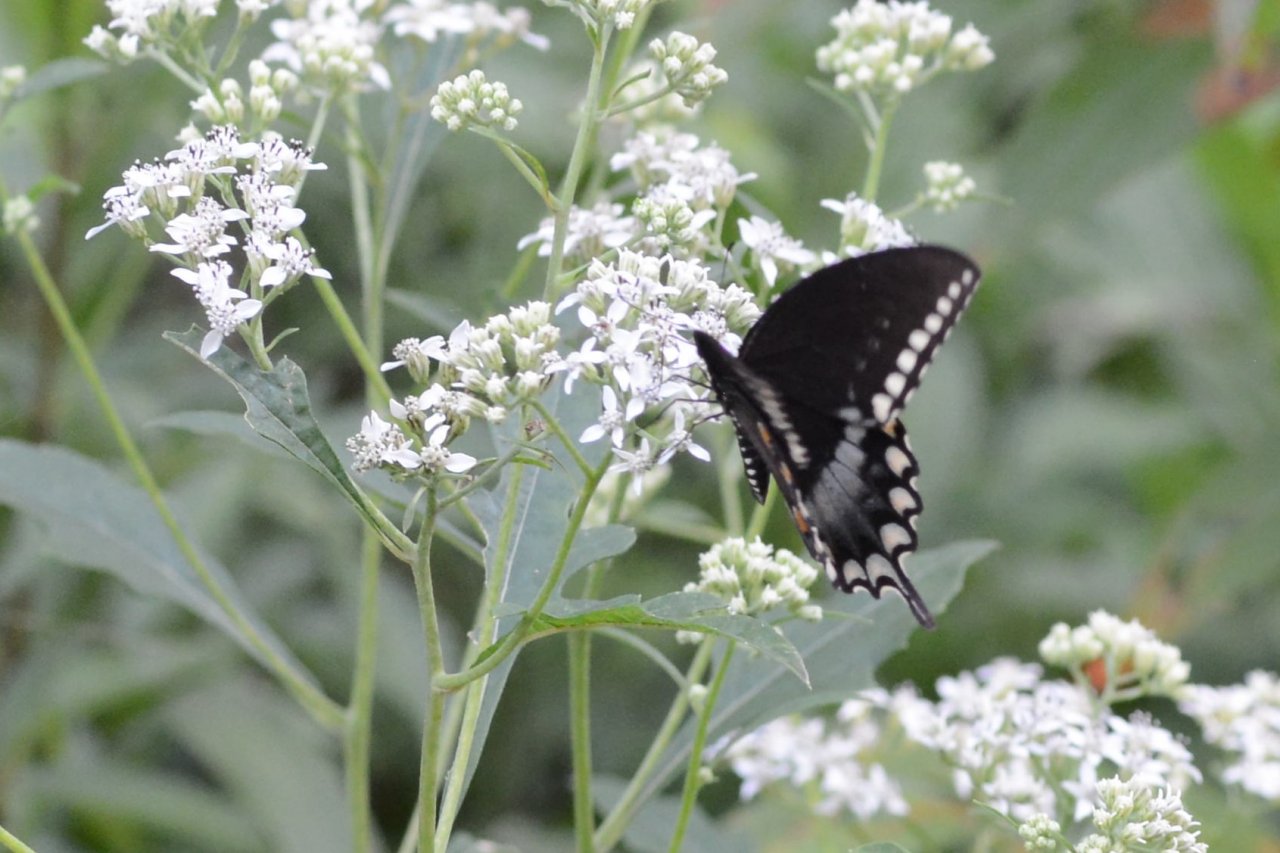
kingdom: Animalia
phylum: Arthropoda
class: Insecta
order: Lepidoptera
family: Papilionidae
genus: Pterourus
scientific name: Pterourus troilus
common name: Spicebush Swallowtail
